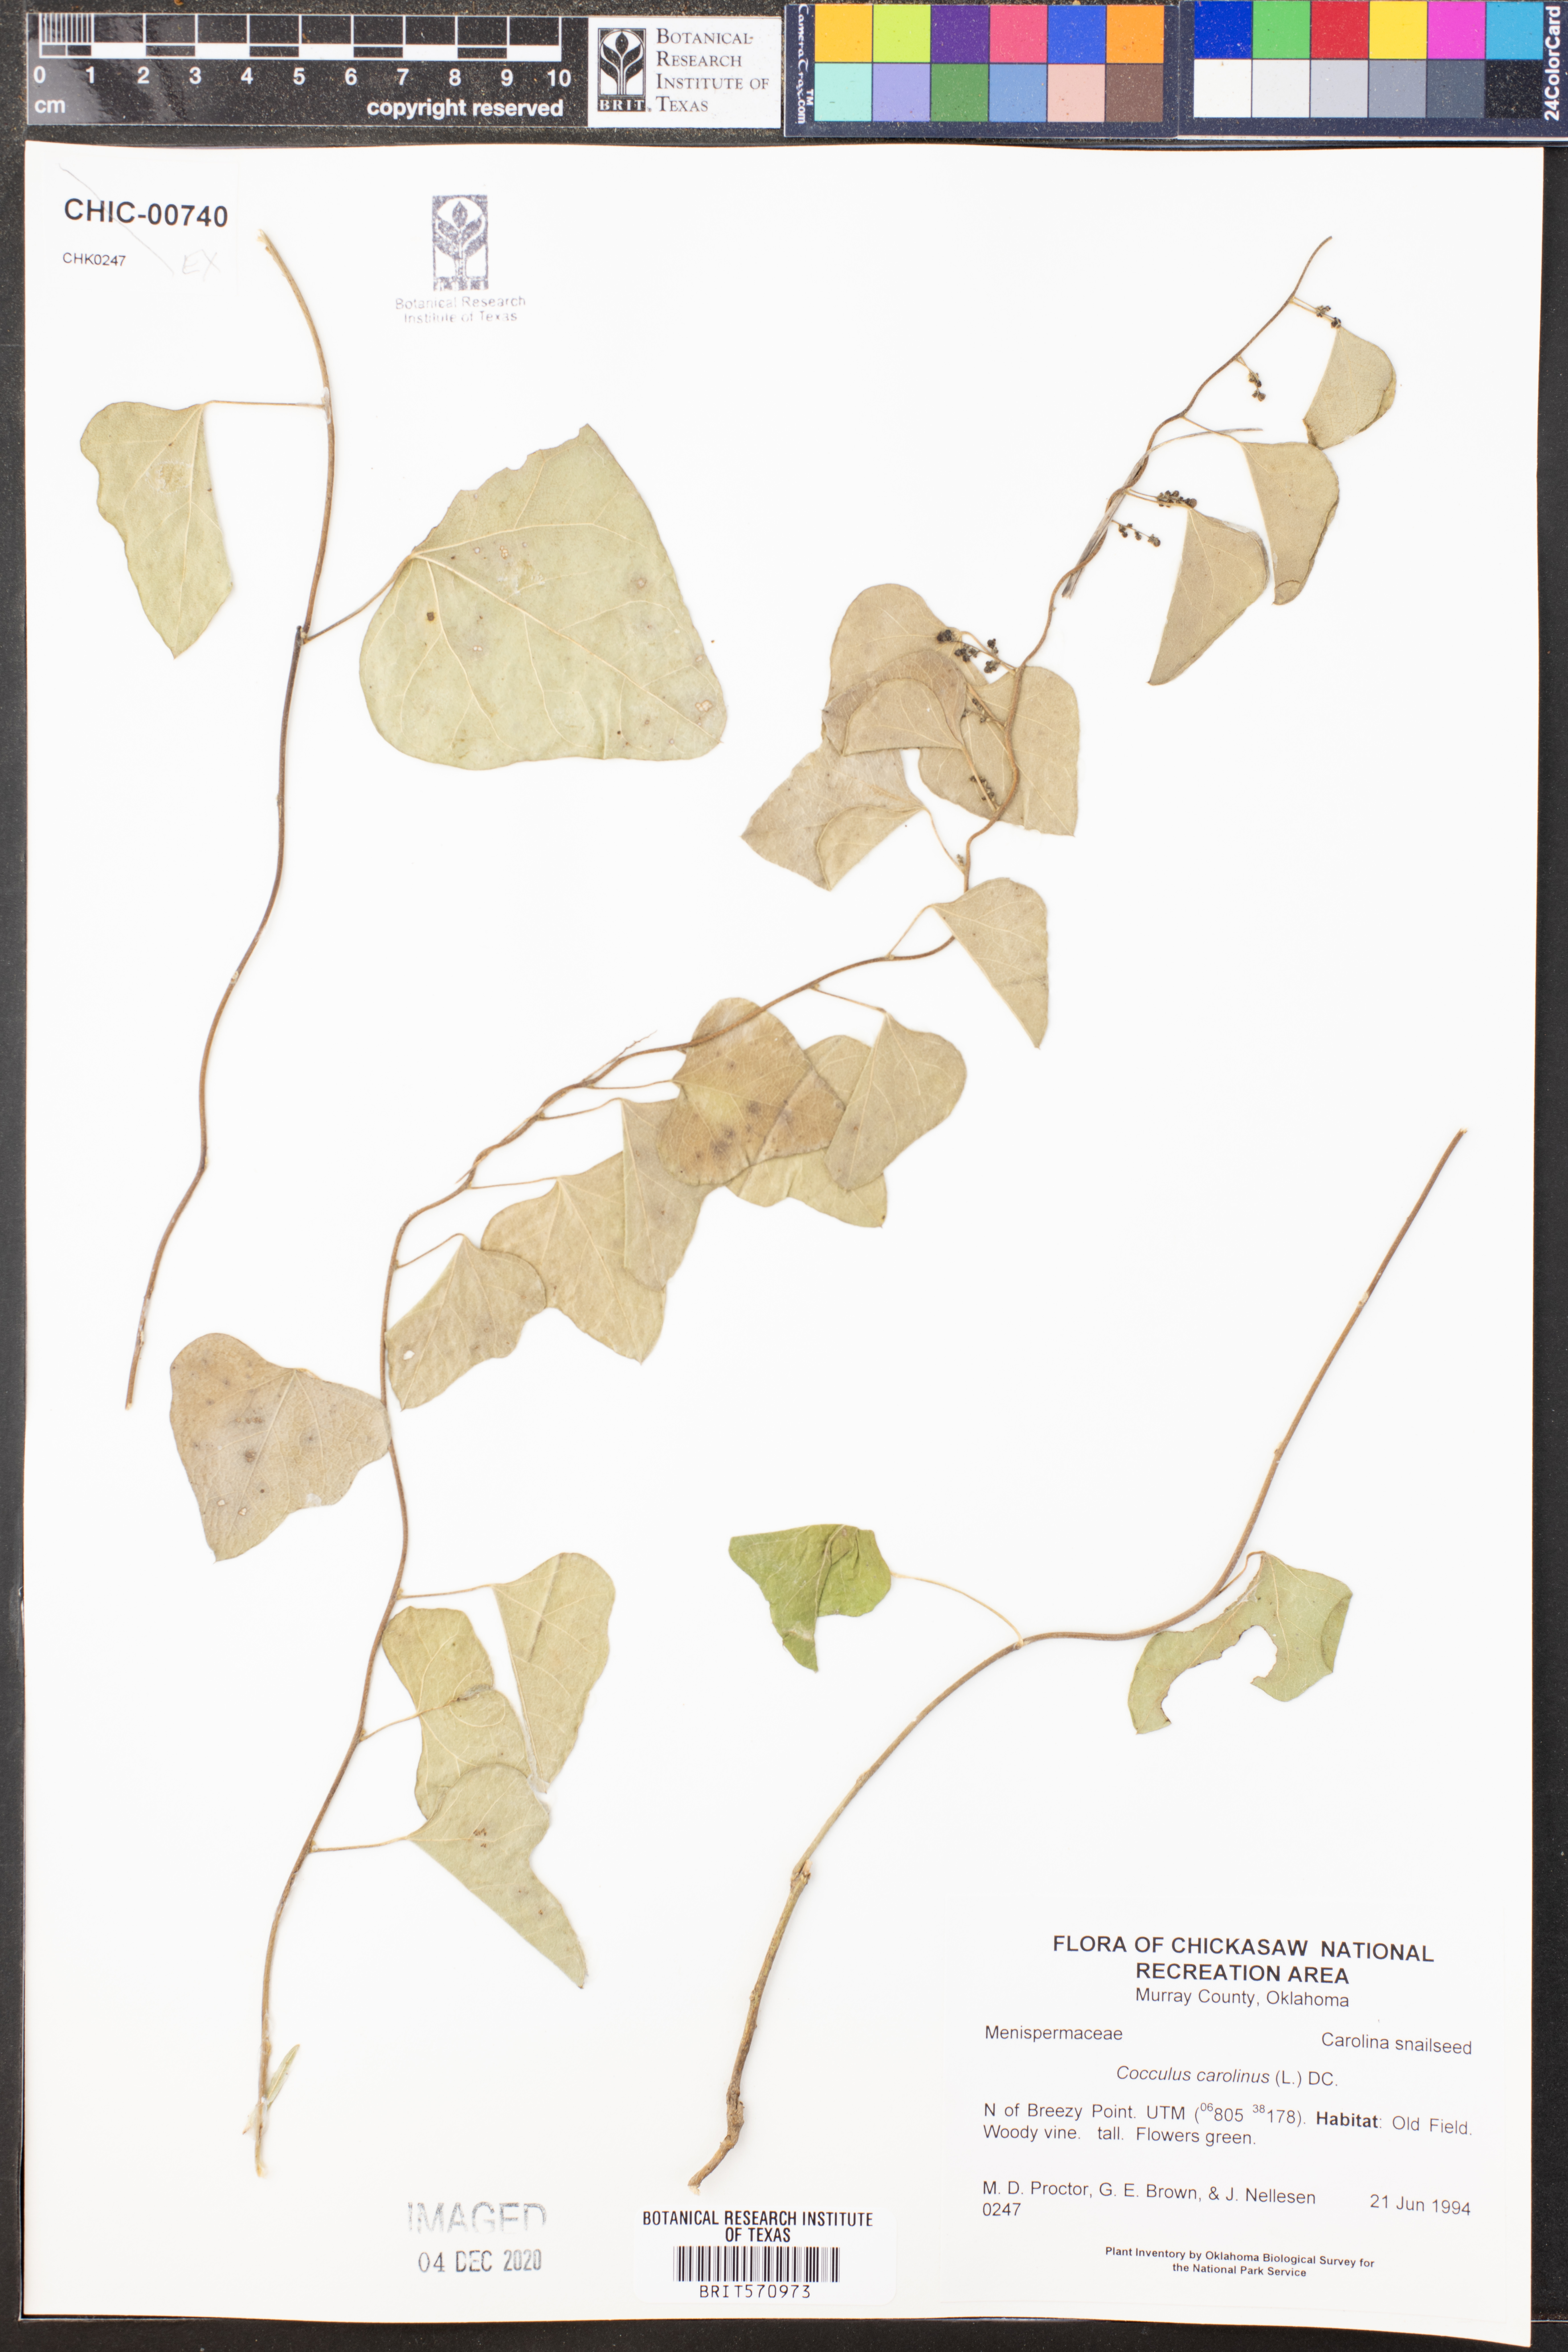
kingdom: Plantae
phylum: Tracheophyta
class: Magnoliopsida
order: Ranunculales
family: Menispermaceae
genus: Cocculus
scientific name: Cocculus carolinus
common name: Carolina moonseed
